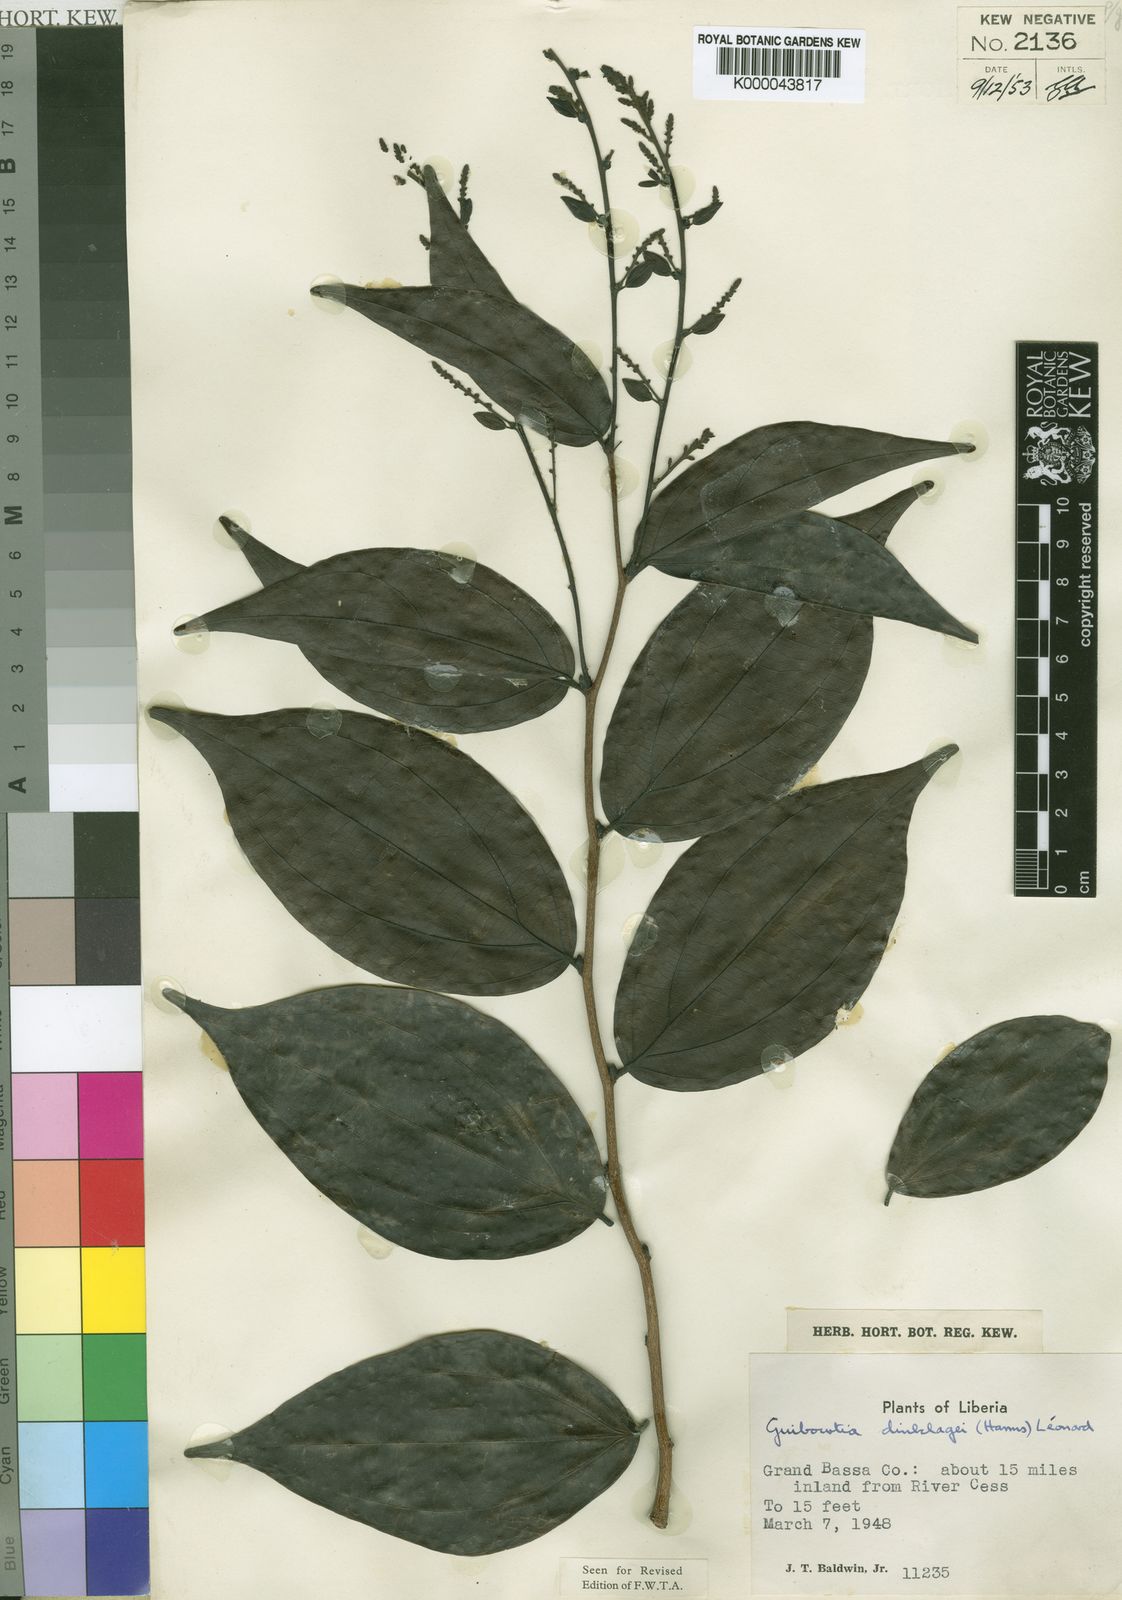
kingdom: Plantae
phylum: Tracheophyta
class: Magnoliopsida
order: Fabales
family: Fabaceae
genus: Guibourtia
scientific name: Guibourtia
